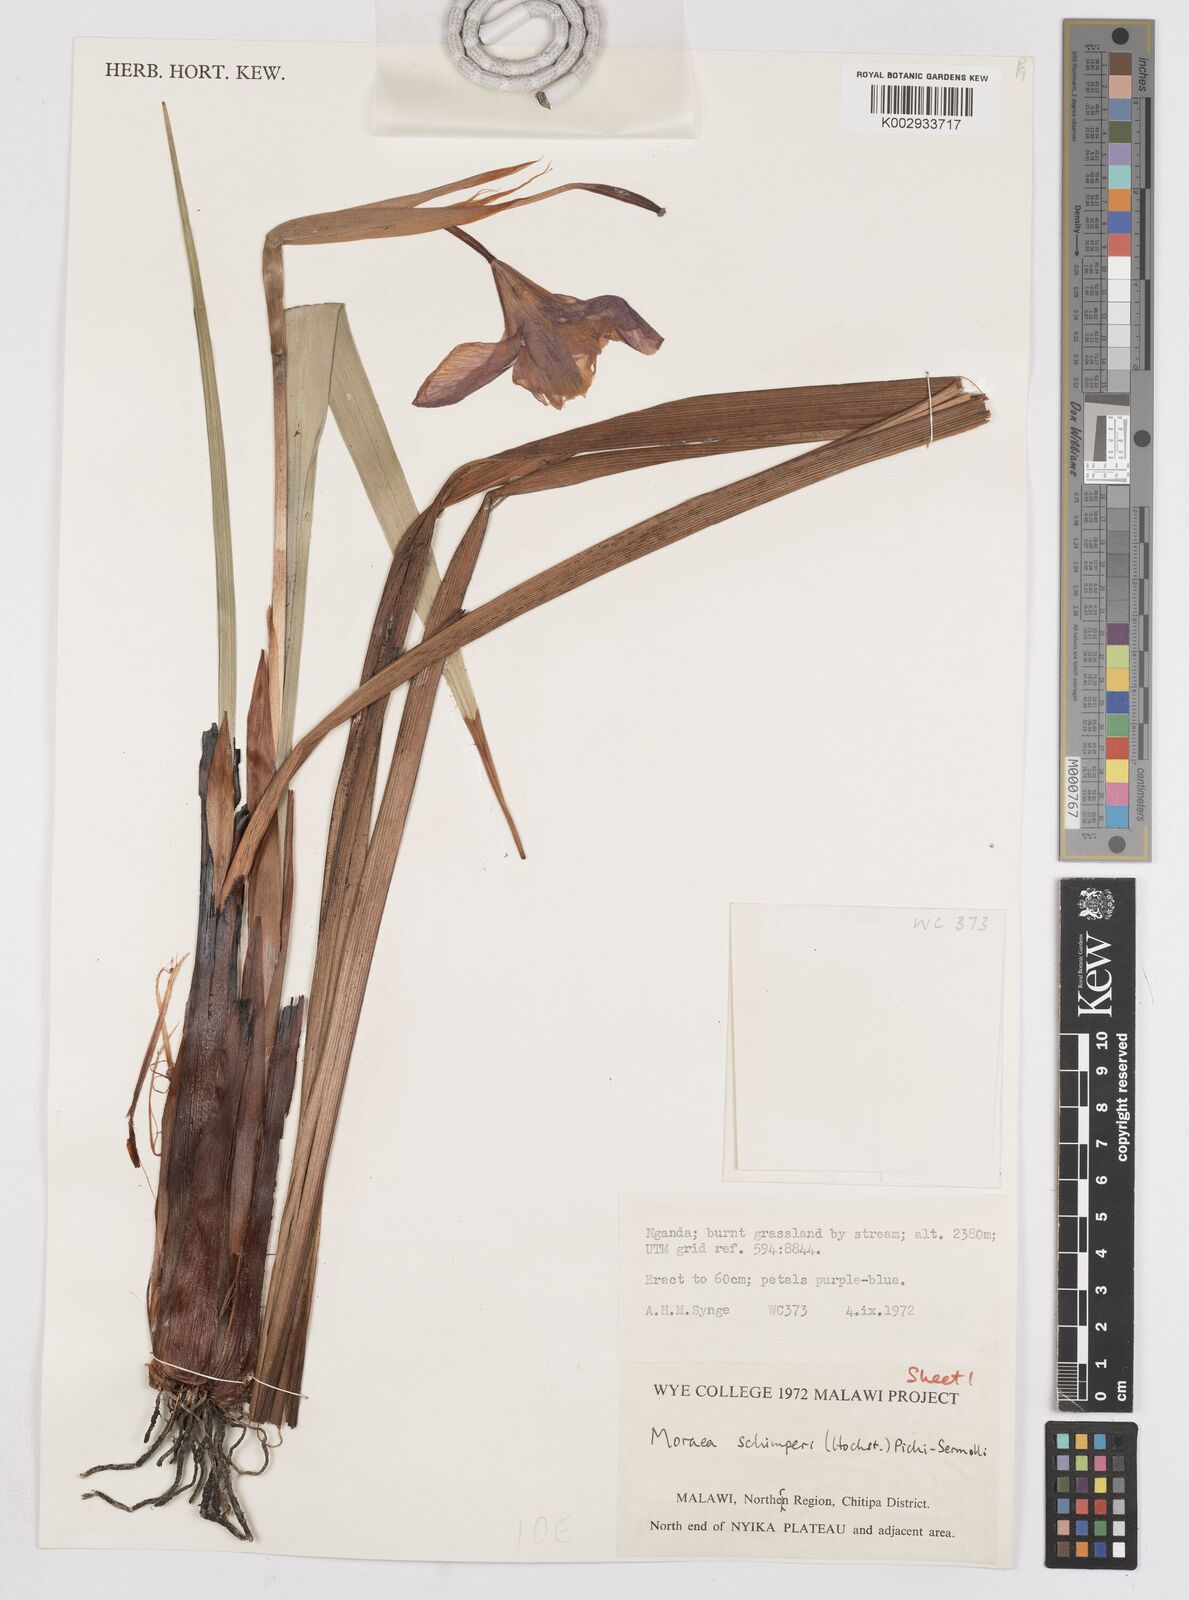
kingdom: Plantae
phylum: Tracheophyta
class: Liliopsida
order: Asparagales
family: Iridaceae
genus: Moraea
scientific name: Moraea schimperi
